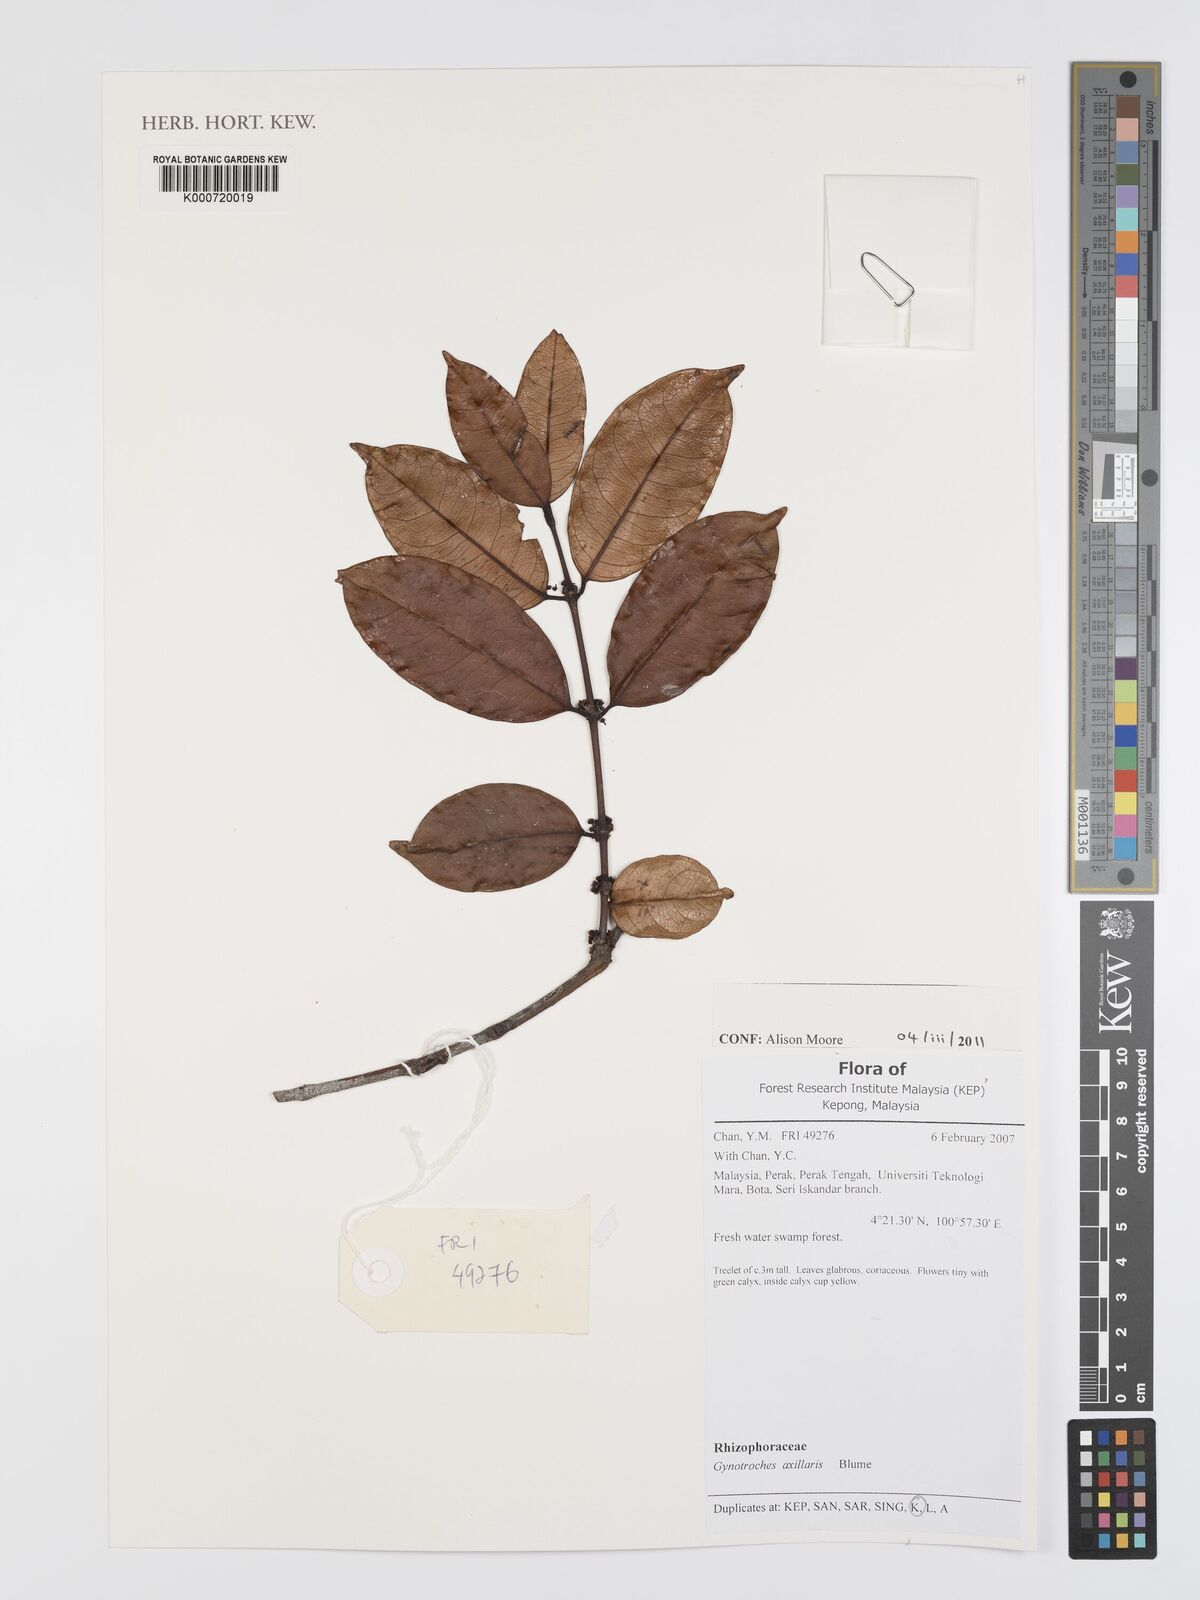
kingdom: Plantae
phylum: Tracheophyta
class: Magnoliopsida
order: Malpighiales
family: Rhizophoraceae
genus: Gynotroches
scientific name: Gynotroches axillaris
